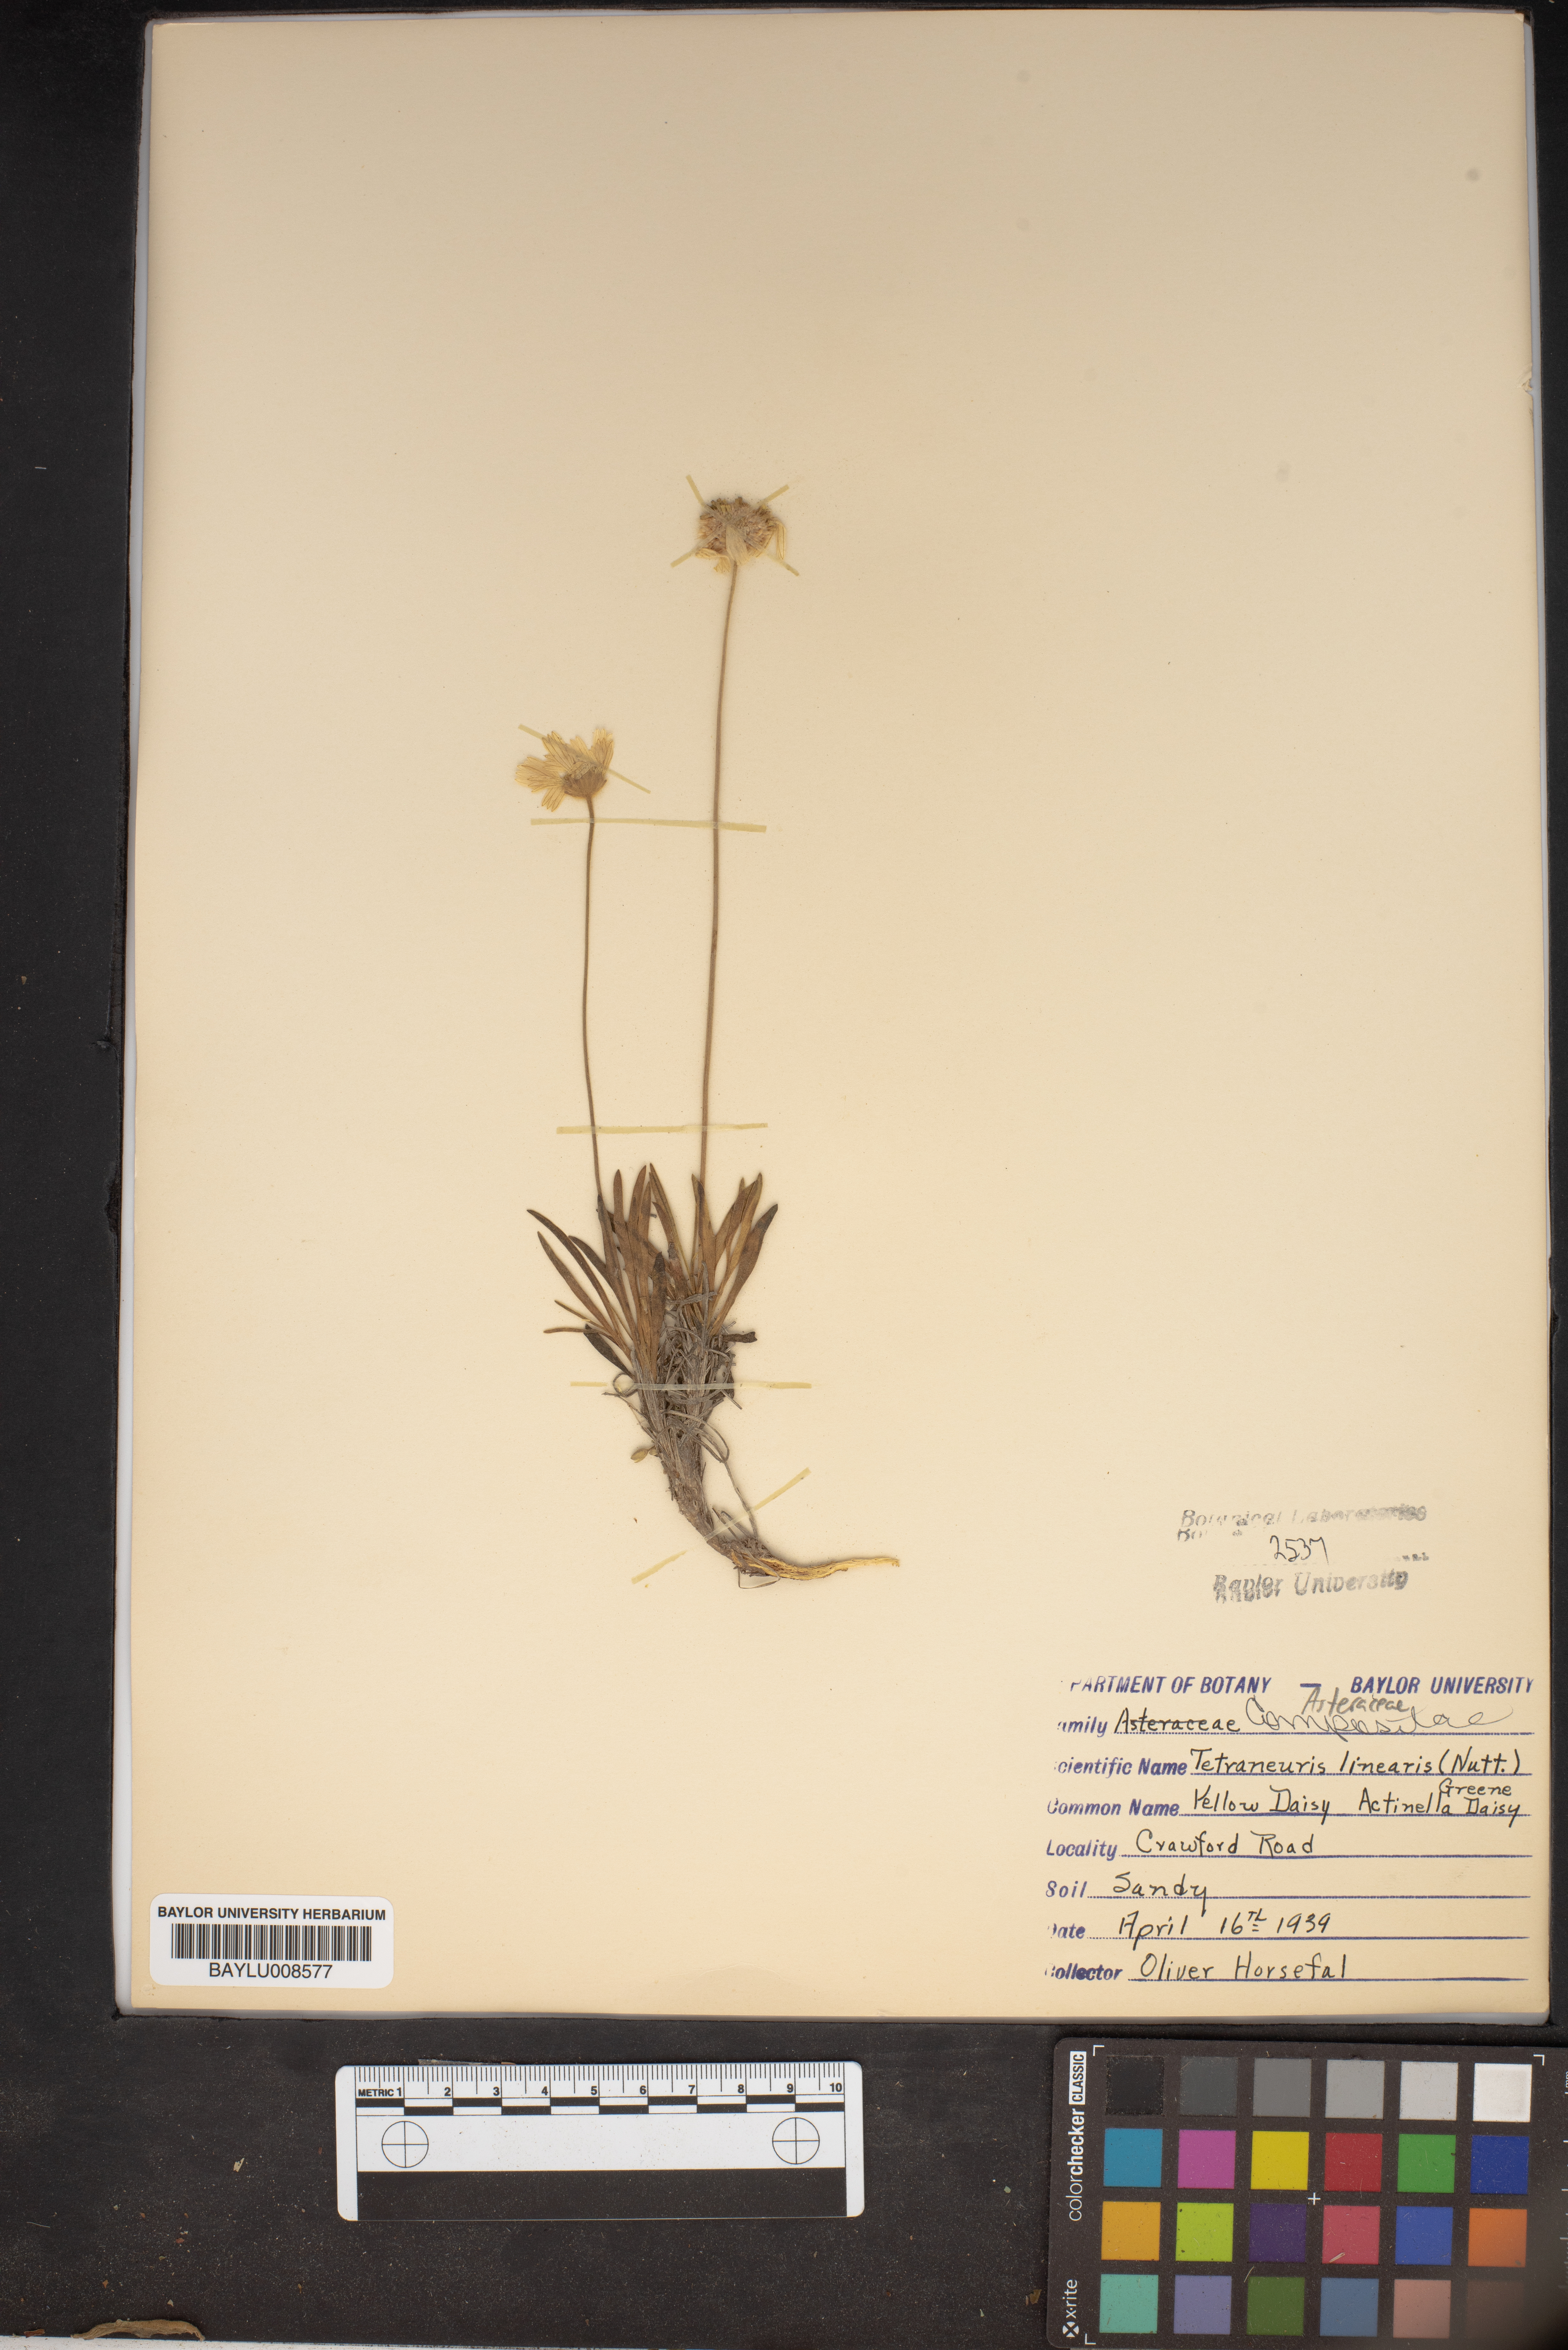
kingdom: Plantae
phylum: Tracheophyta
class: Magnoliopsida
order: Asterales
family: Asteraceae
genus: Tetraneuris
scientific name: Tetraneuris scaposa
